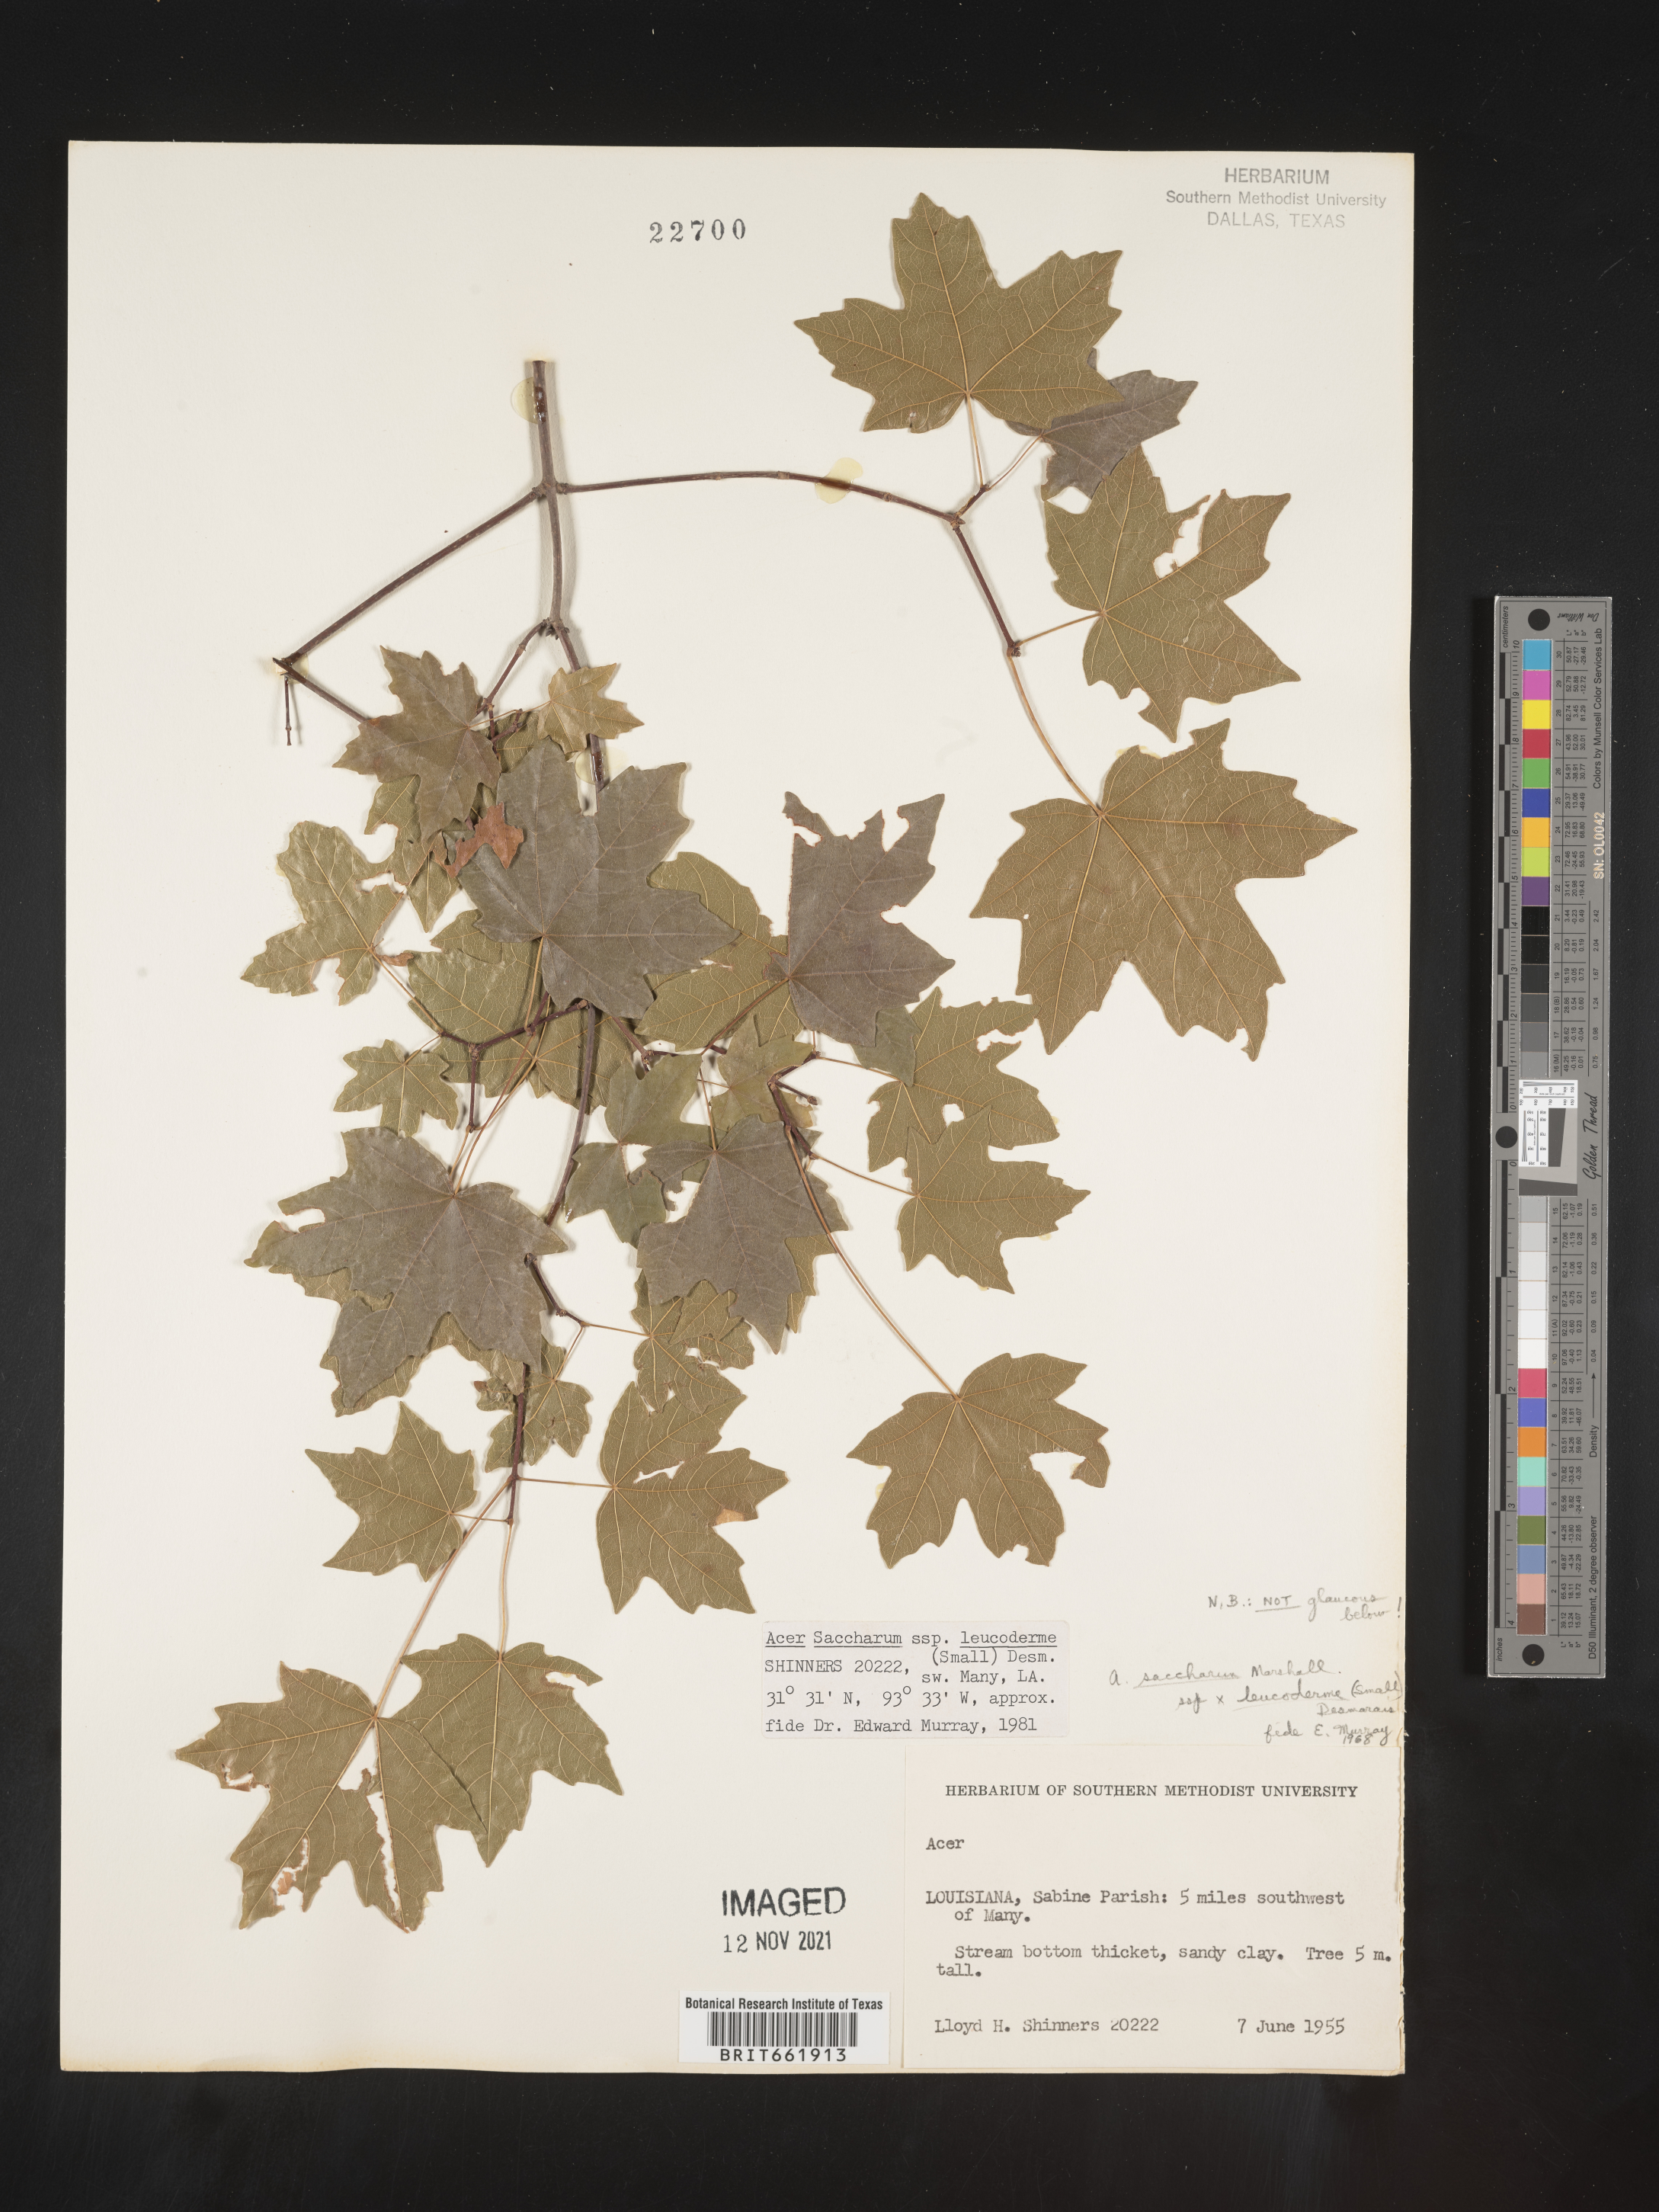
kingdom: Plantae
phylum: Tracheophyta
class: Magnoliopsida
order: Sapindales
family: Sapindaceae
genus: Acer
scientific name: Acer leucoderme
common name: Chalk maple
